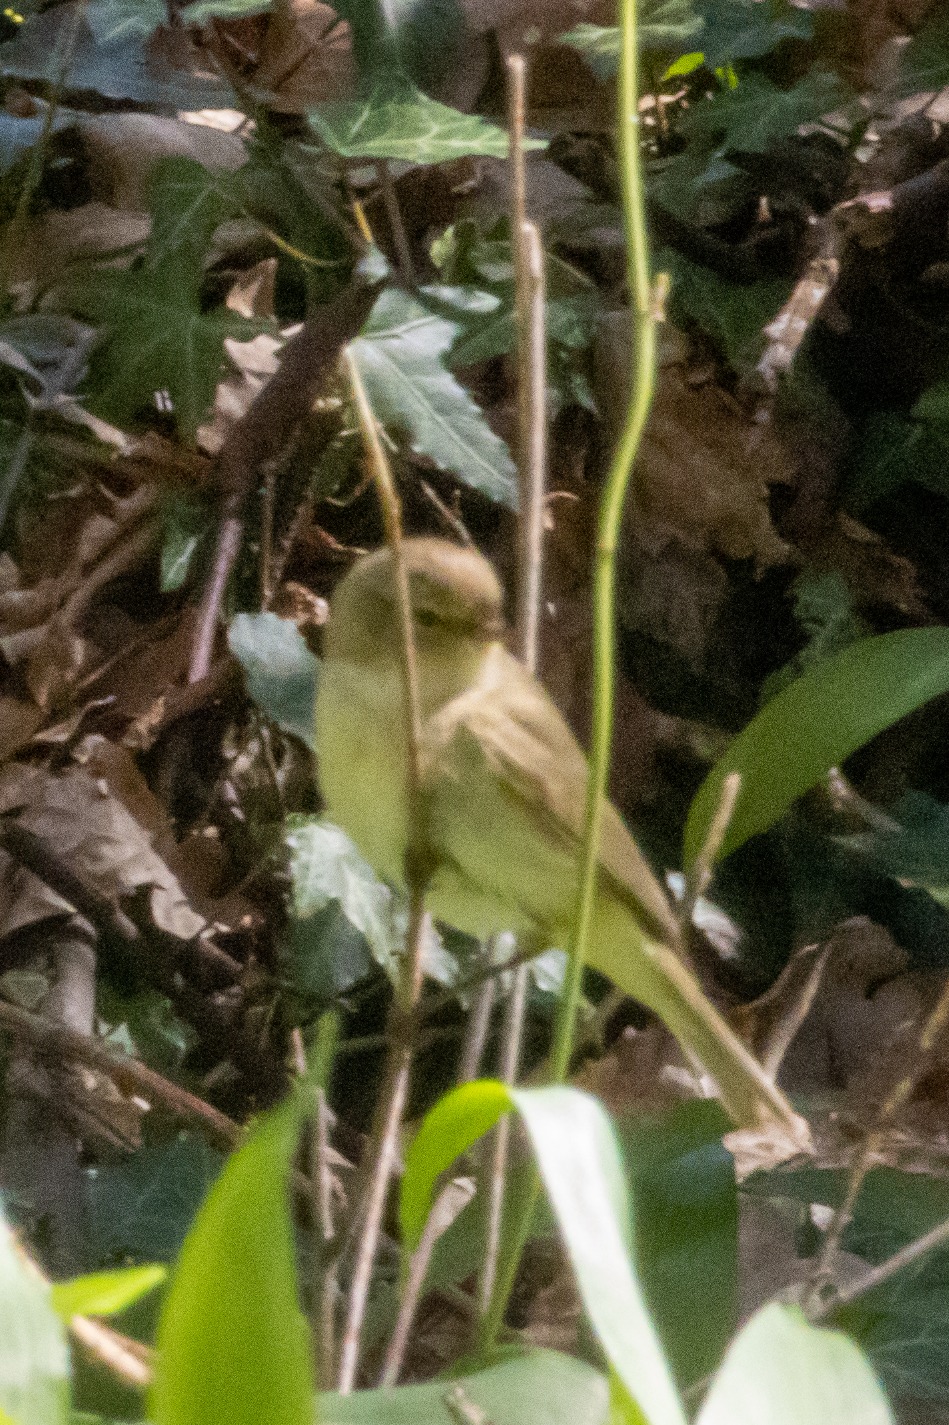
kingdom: Animalia
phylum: Chordata
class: Aves
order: Passeriformes
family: Phylloscopidae
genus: Phylloscopus
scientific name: Phylloscopus collybita
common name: Gransanger
